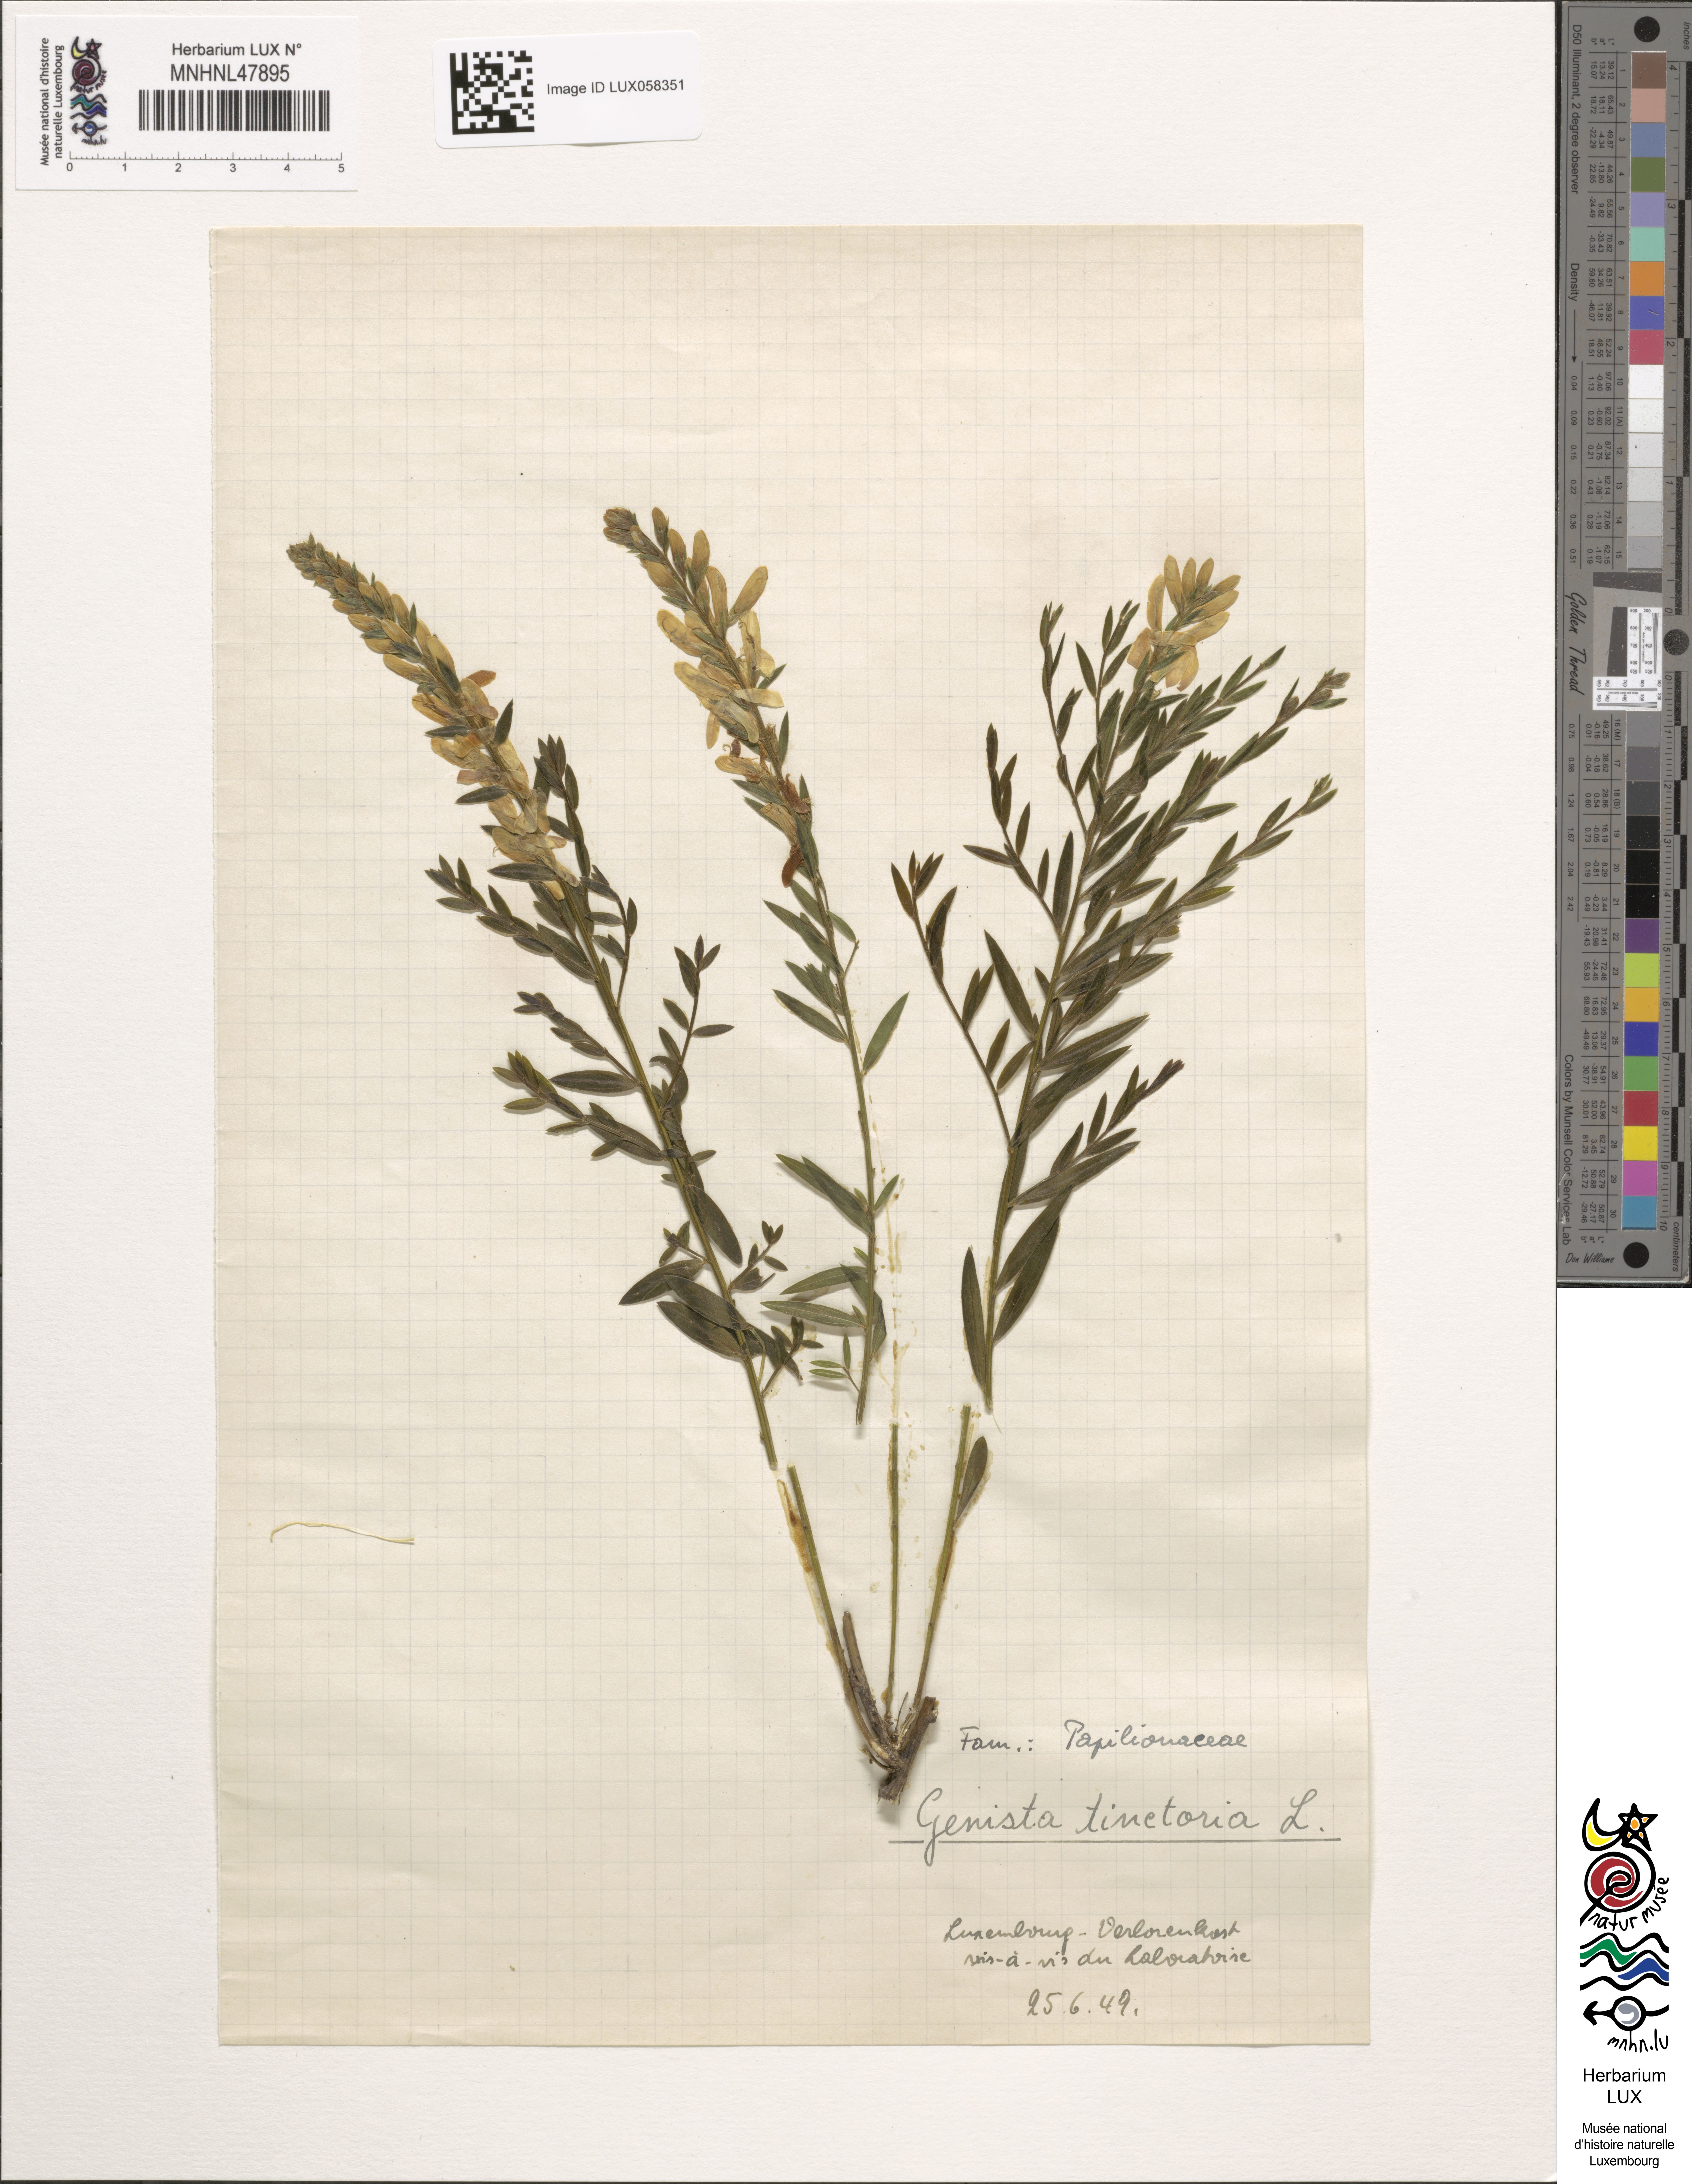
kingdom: Plantae
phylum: Tracheophyta
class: Magnoliopsida
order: Fabales
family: Fabaceae
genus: Genista
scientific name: Genista tinctoria
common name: Dyer's greenweed
